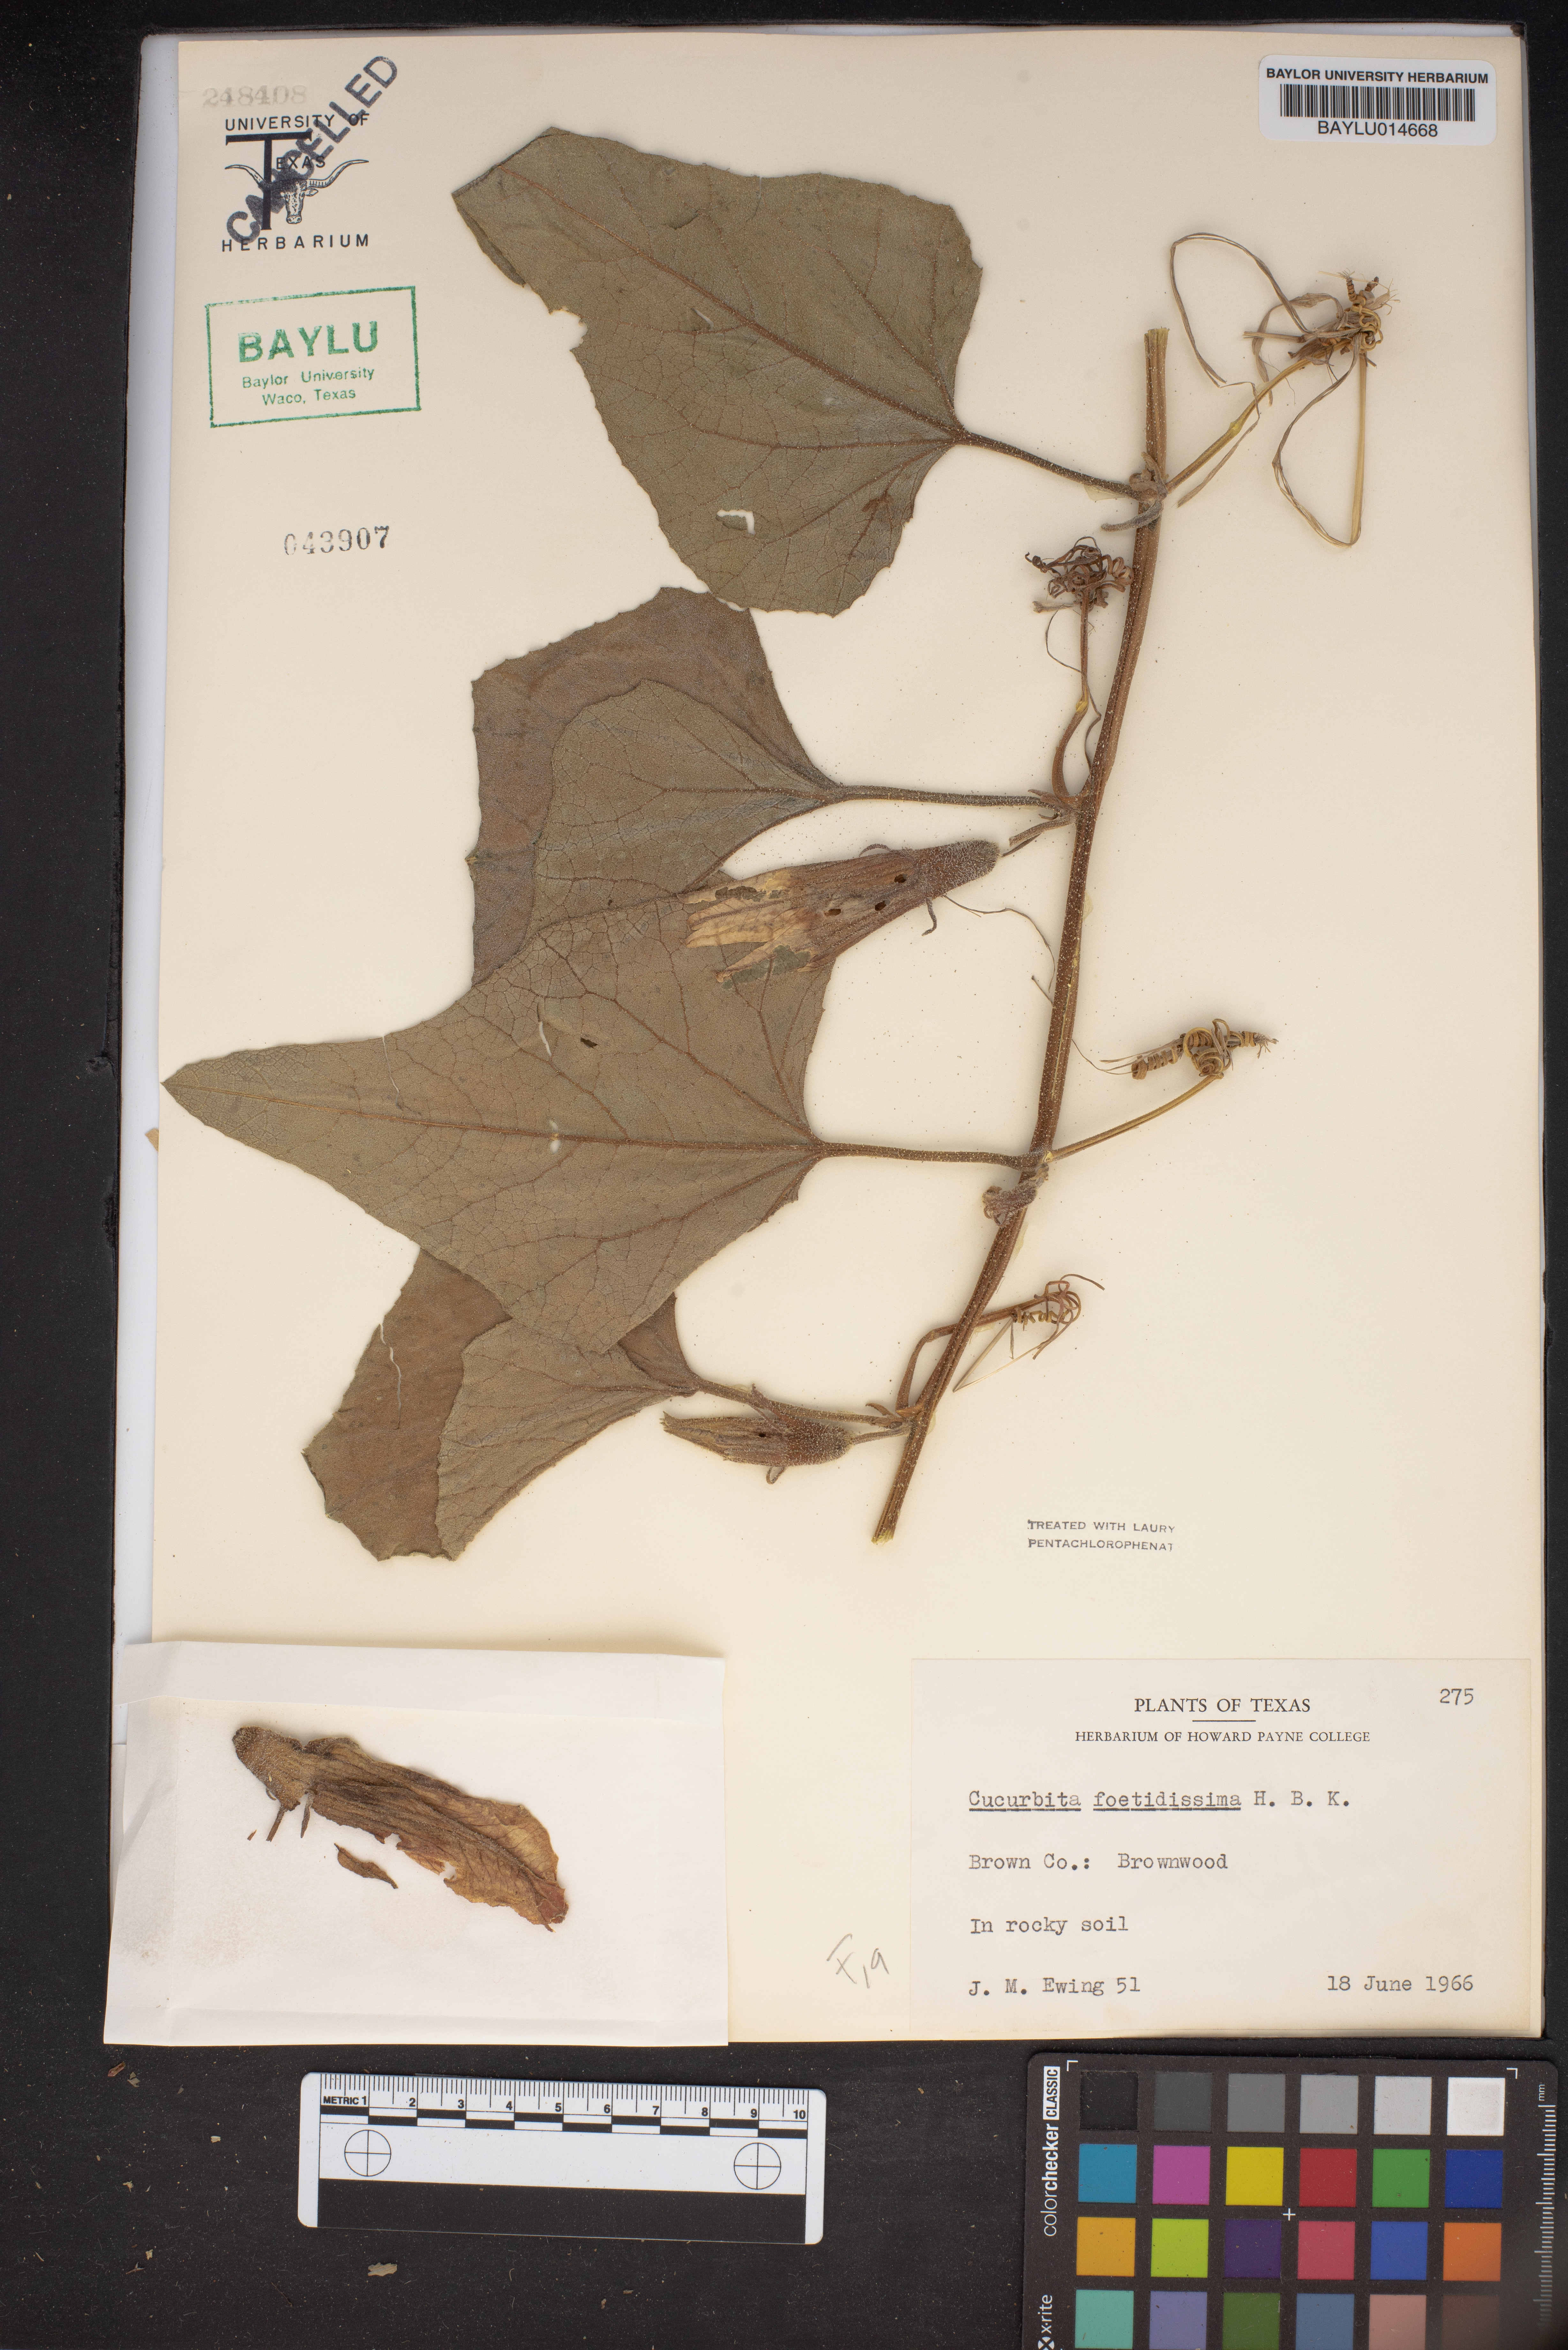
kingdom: Plantae
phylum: Tracheophyta
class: Magnoliopsida
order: Cucurbitales
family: Cucurbitaceae
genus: Cucurbita
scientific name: Cucurbita foetidissima
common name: Buffalo gourd
